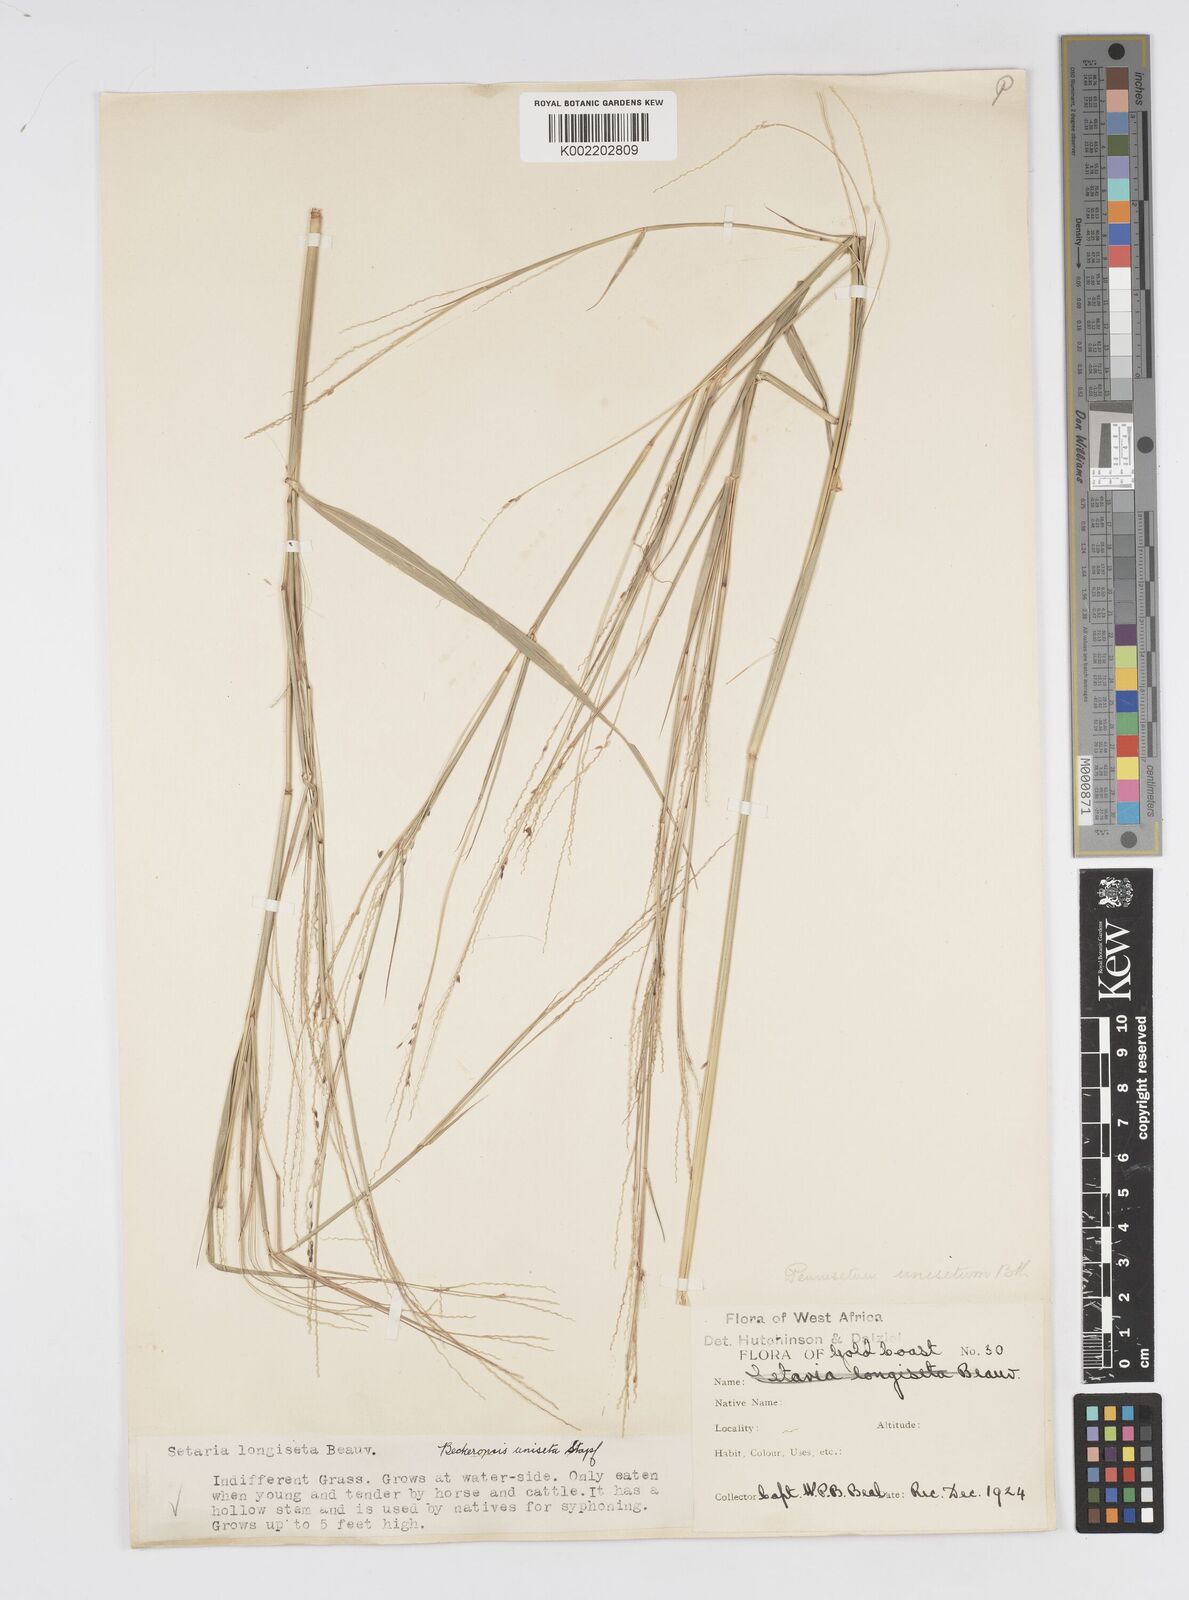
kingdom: Plantae
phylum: Tracheophyta
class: Liliopsida
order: Poales
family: Poaceae
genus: Cenchrus
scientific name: Cenchrus unisetus
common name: Natal grass
